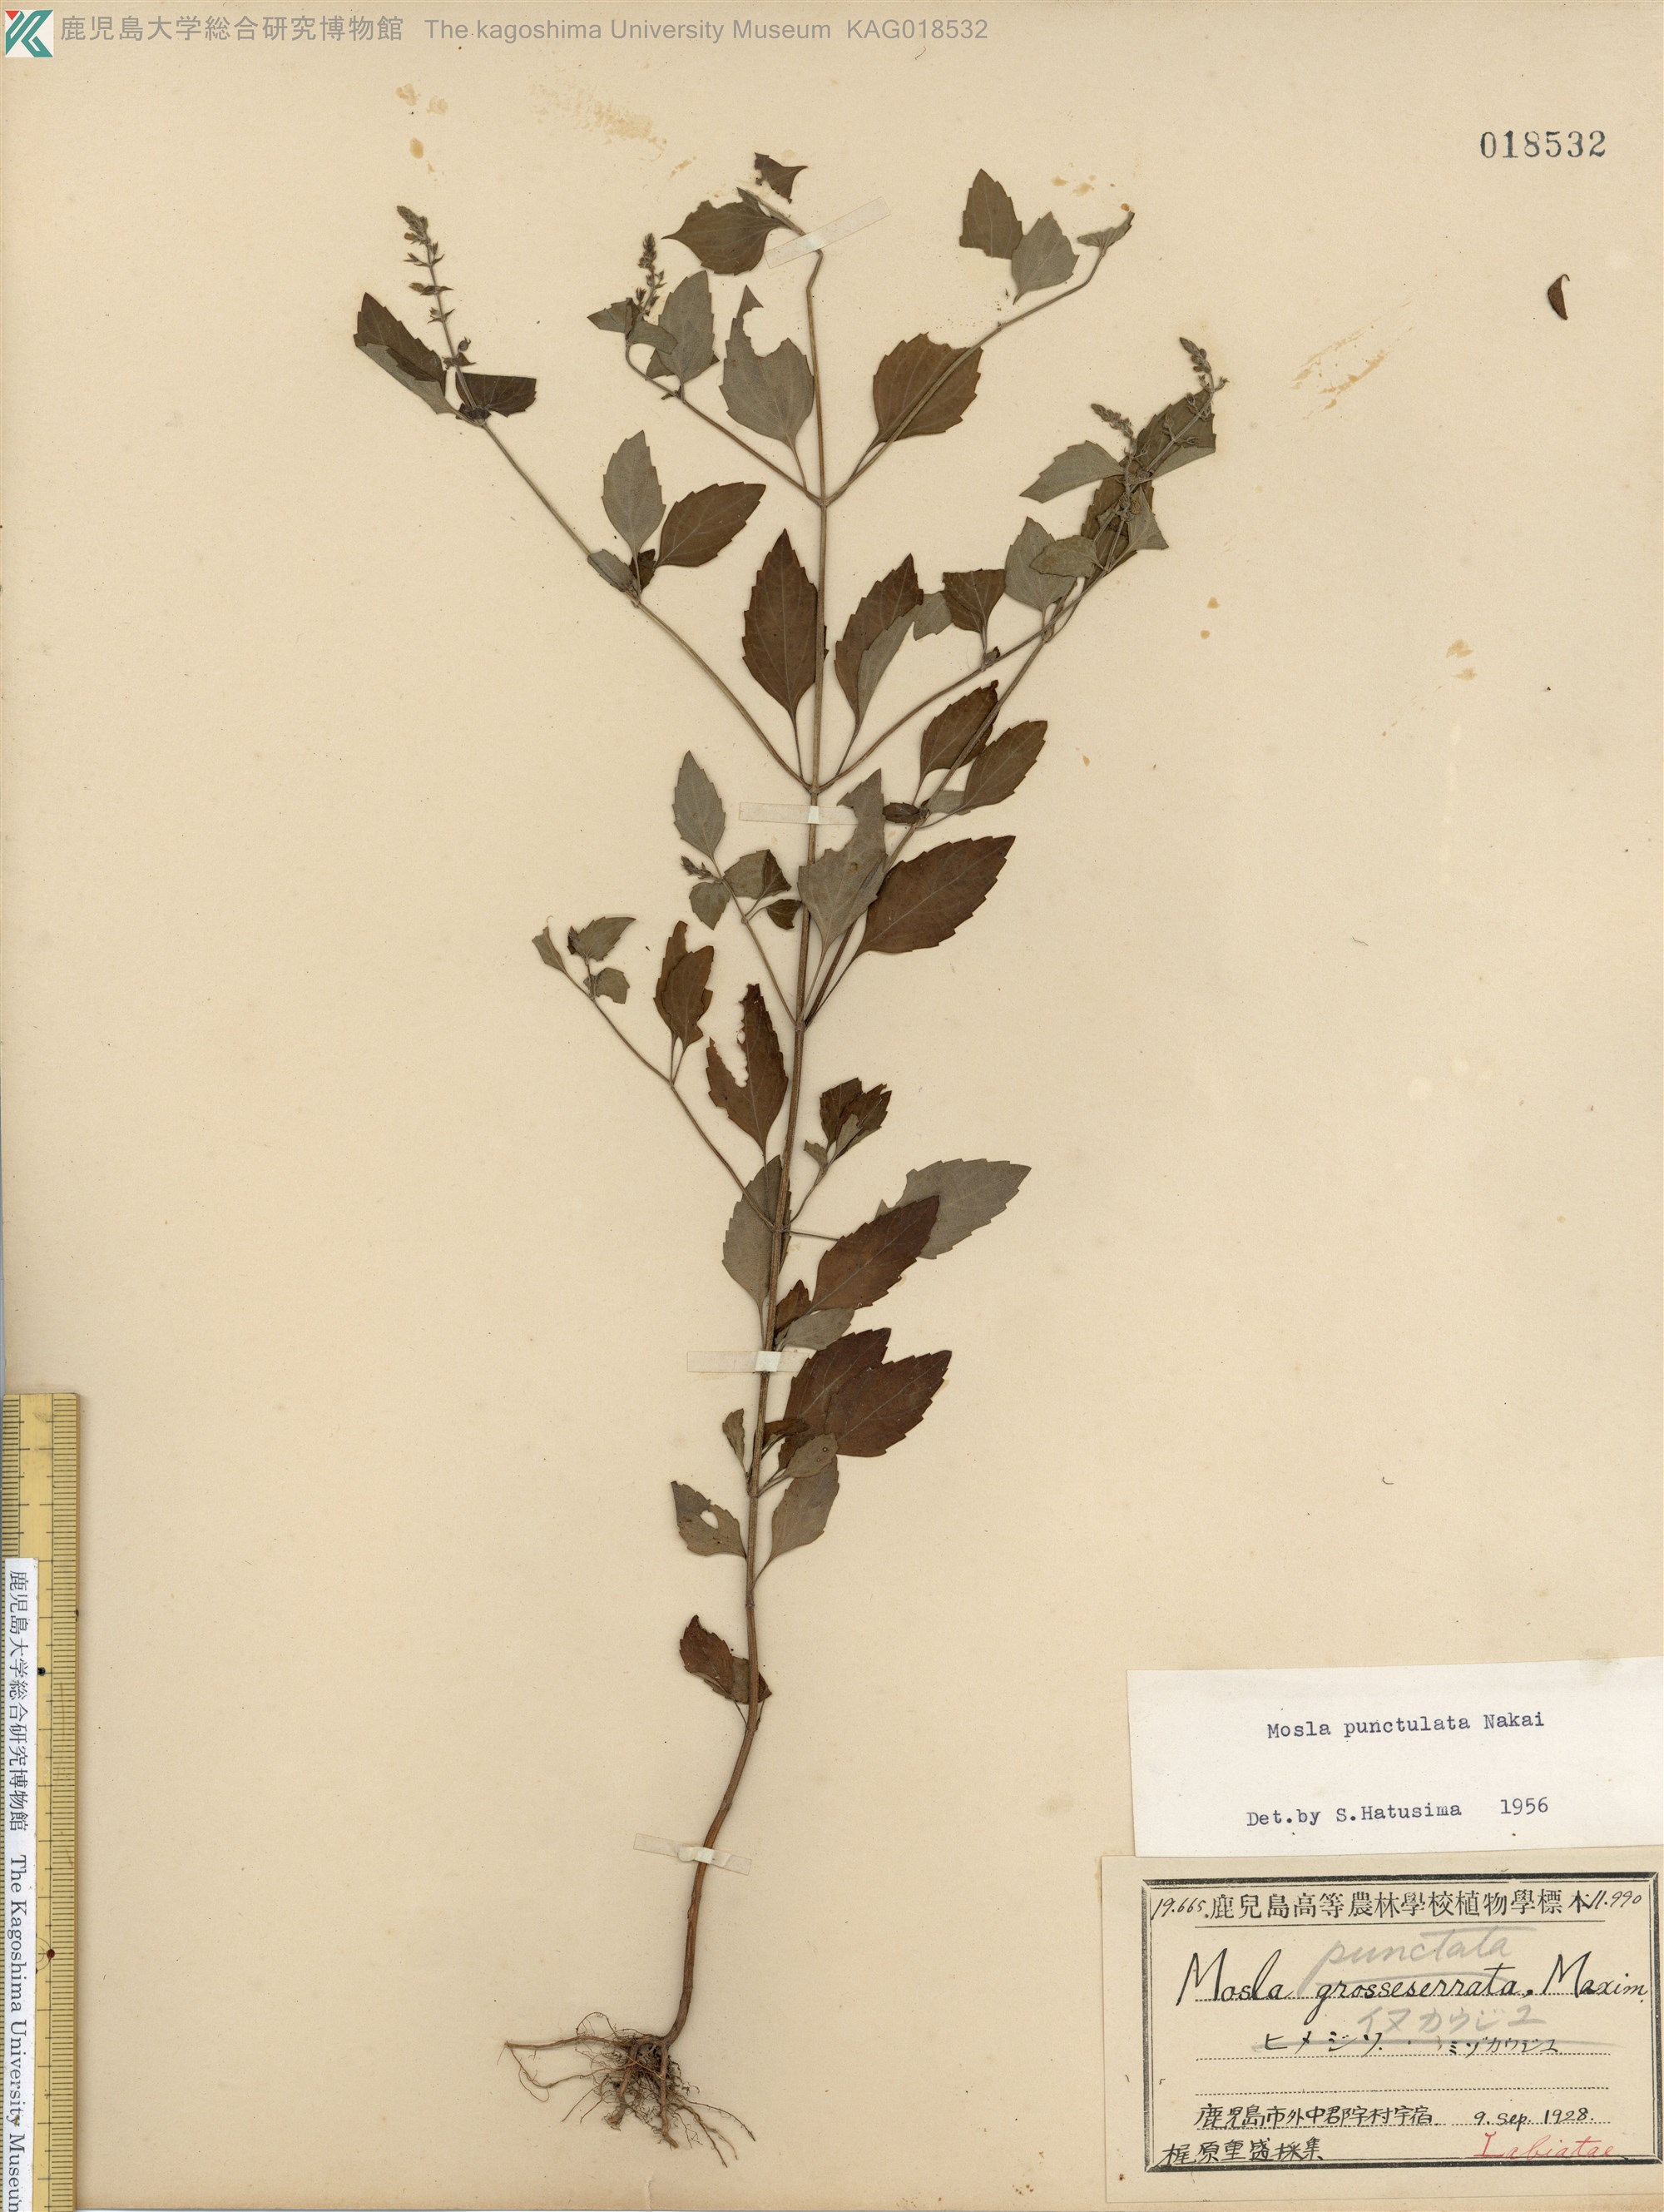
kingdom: Plantae
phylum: Tracheophyta
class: Magnoliopsida
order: Lamiales
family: Lamiaceae
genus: Mosla
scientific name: Mosla scabra
